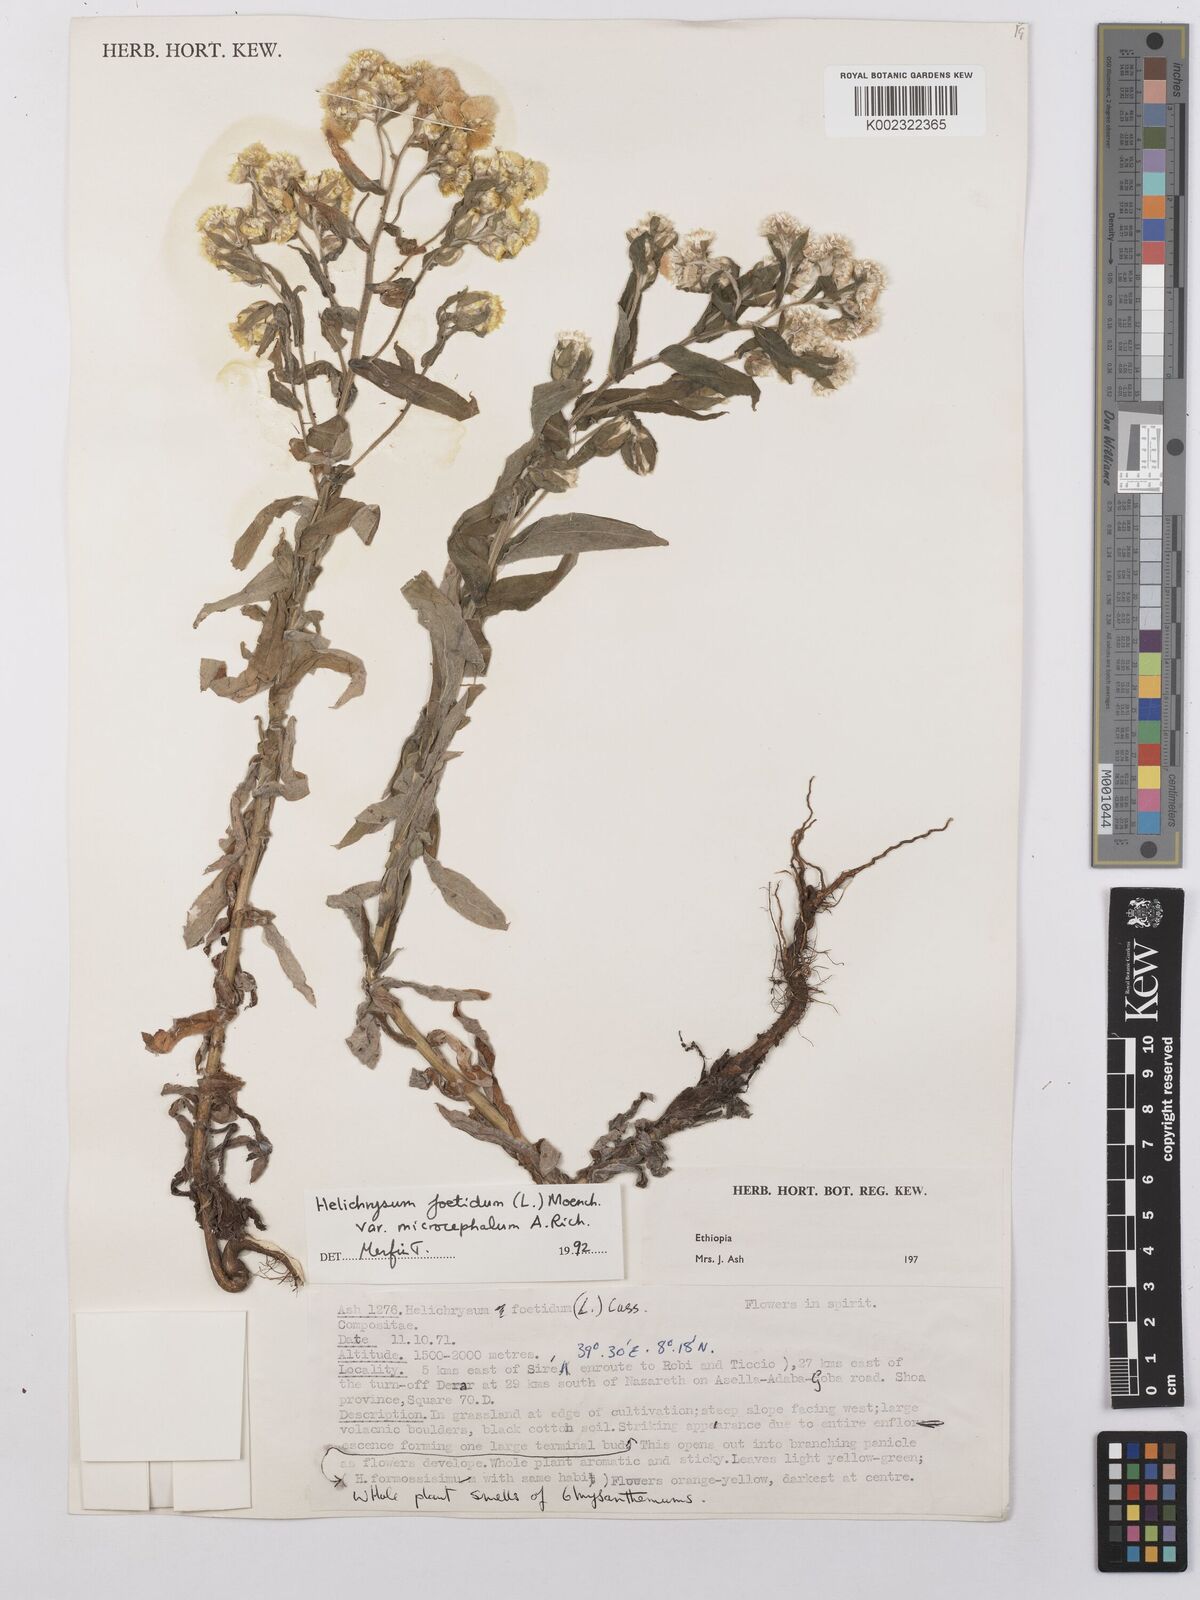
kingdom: Plantae
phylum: Tracheophyta
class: Magnoliopsida
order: Asterales
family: Asteraceae
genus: Helichrysum
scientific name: Helichrysum foetidum
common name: Stinking everlasting
